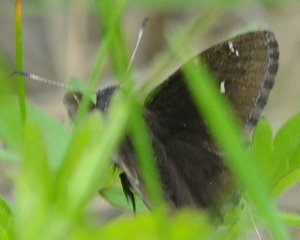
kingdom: Animalia
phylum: Arthropoda
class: Insecta
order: Lepidoptera
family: Hesperiidae
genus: Autochton
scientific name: Autochton
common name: Northern Cloudywing
